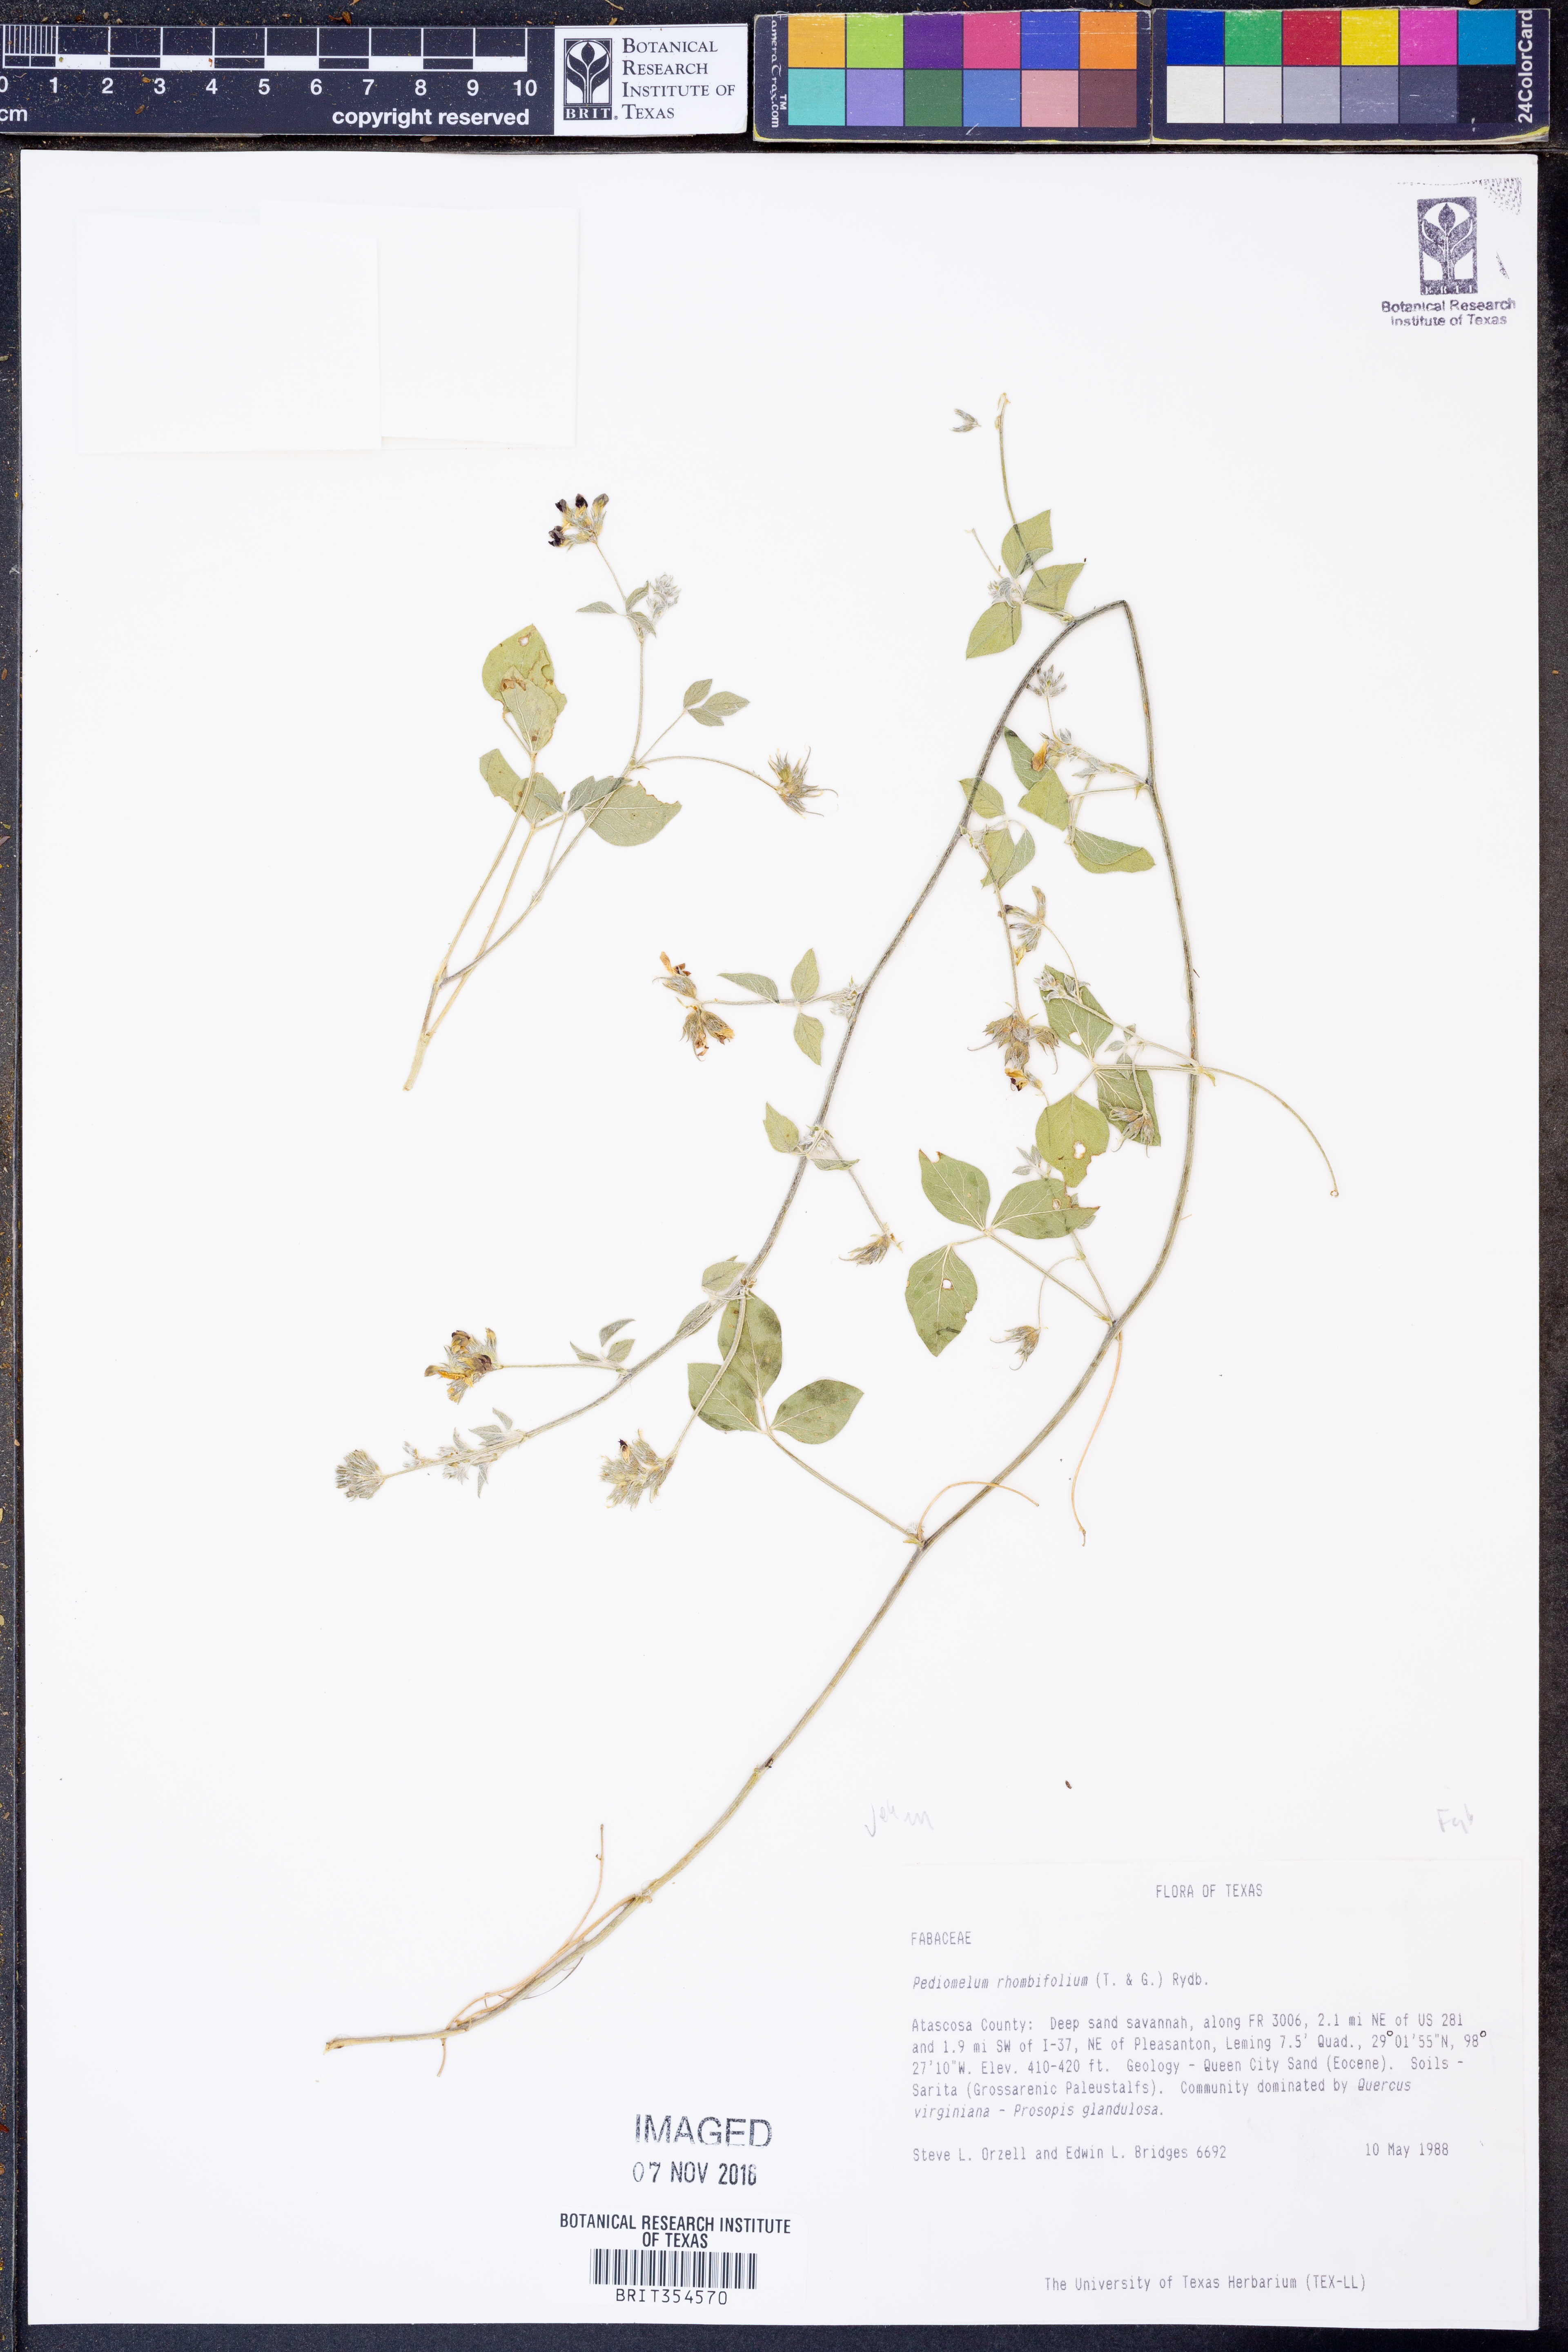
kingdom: Plantae
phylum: Tracheophyta
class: Magnoliopsida
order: Fabales
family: Fabaceae
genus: Pediomelum
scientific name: Pediomelum rhombifolium
